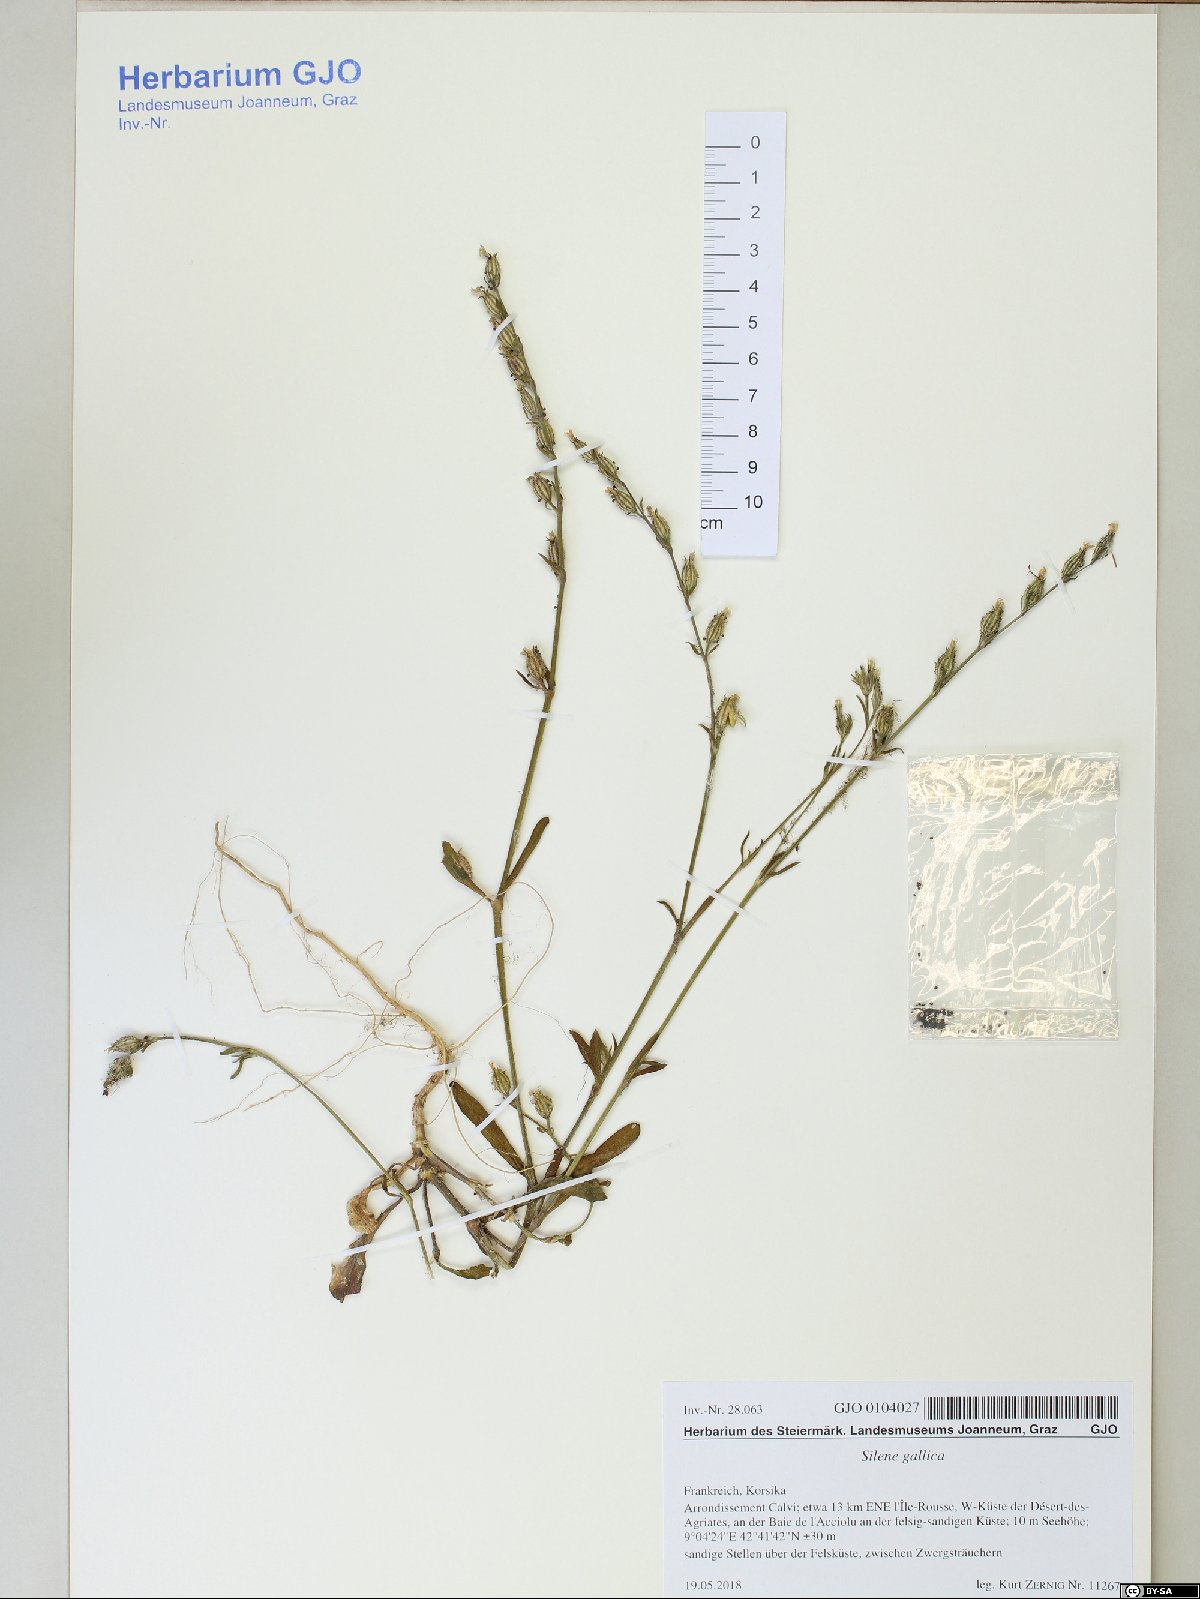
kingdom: Plantae
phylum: Tracheophyta
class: Magnoliopsida
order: Caryophyllales
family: Caryophyllaceae
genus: Silene
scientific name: Silene gallica
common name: Small-flowered catchfly
